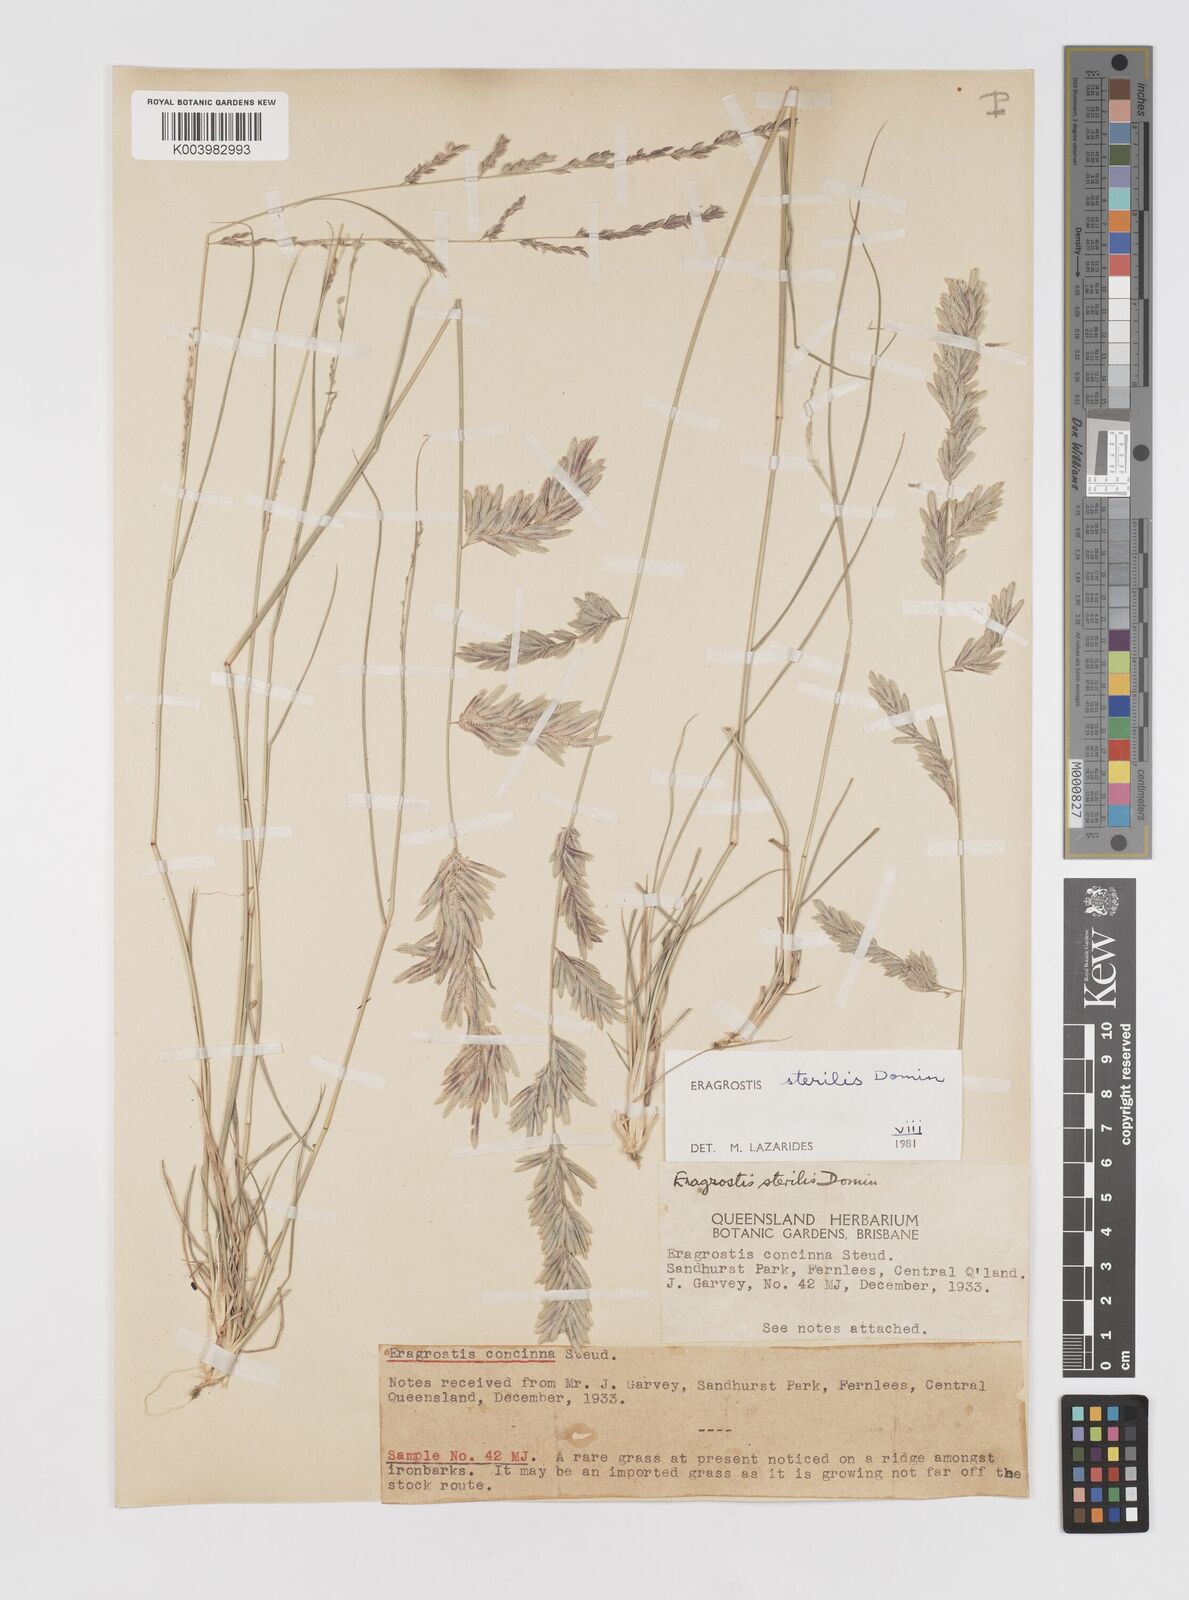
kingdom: Plantae
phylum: Tracheophyta
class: Liliopsida
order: Poales
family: Poaceae
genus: Eragrostis
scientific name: Eragrostis sterilis
